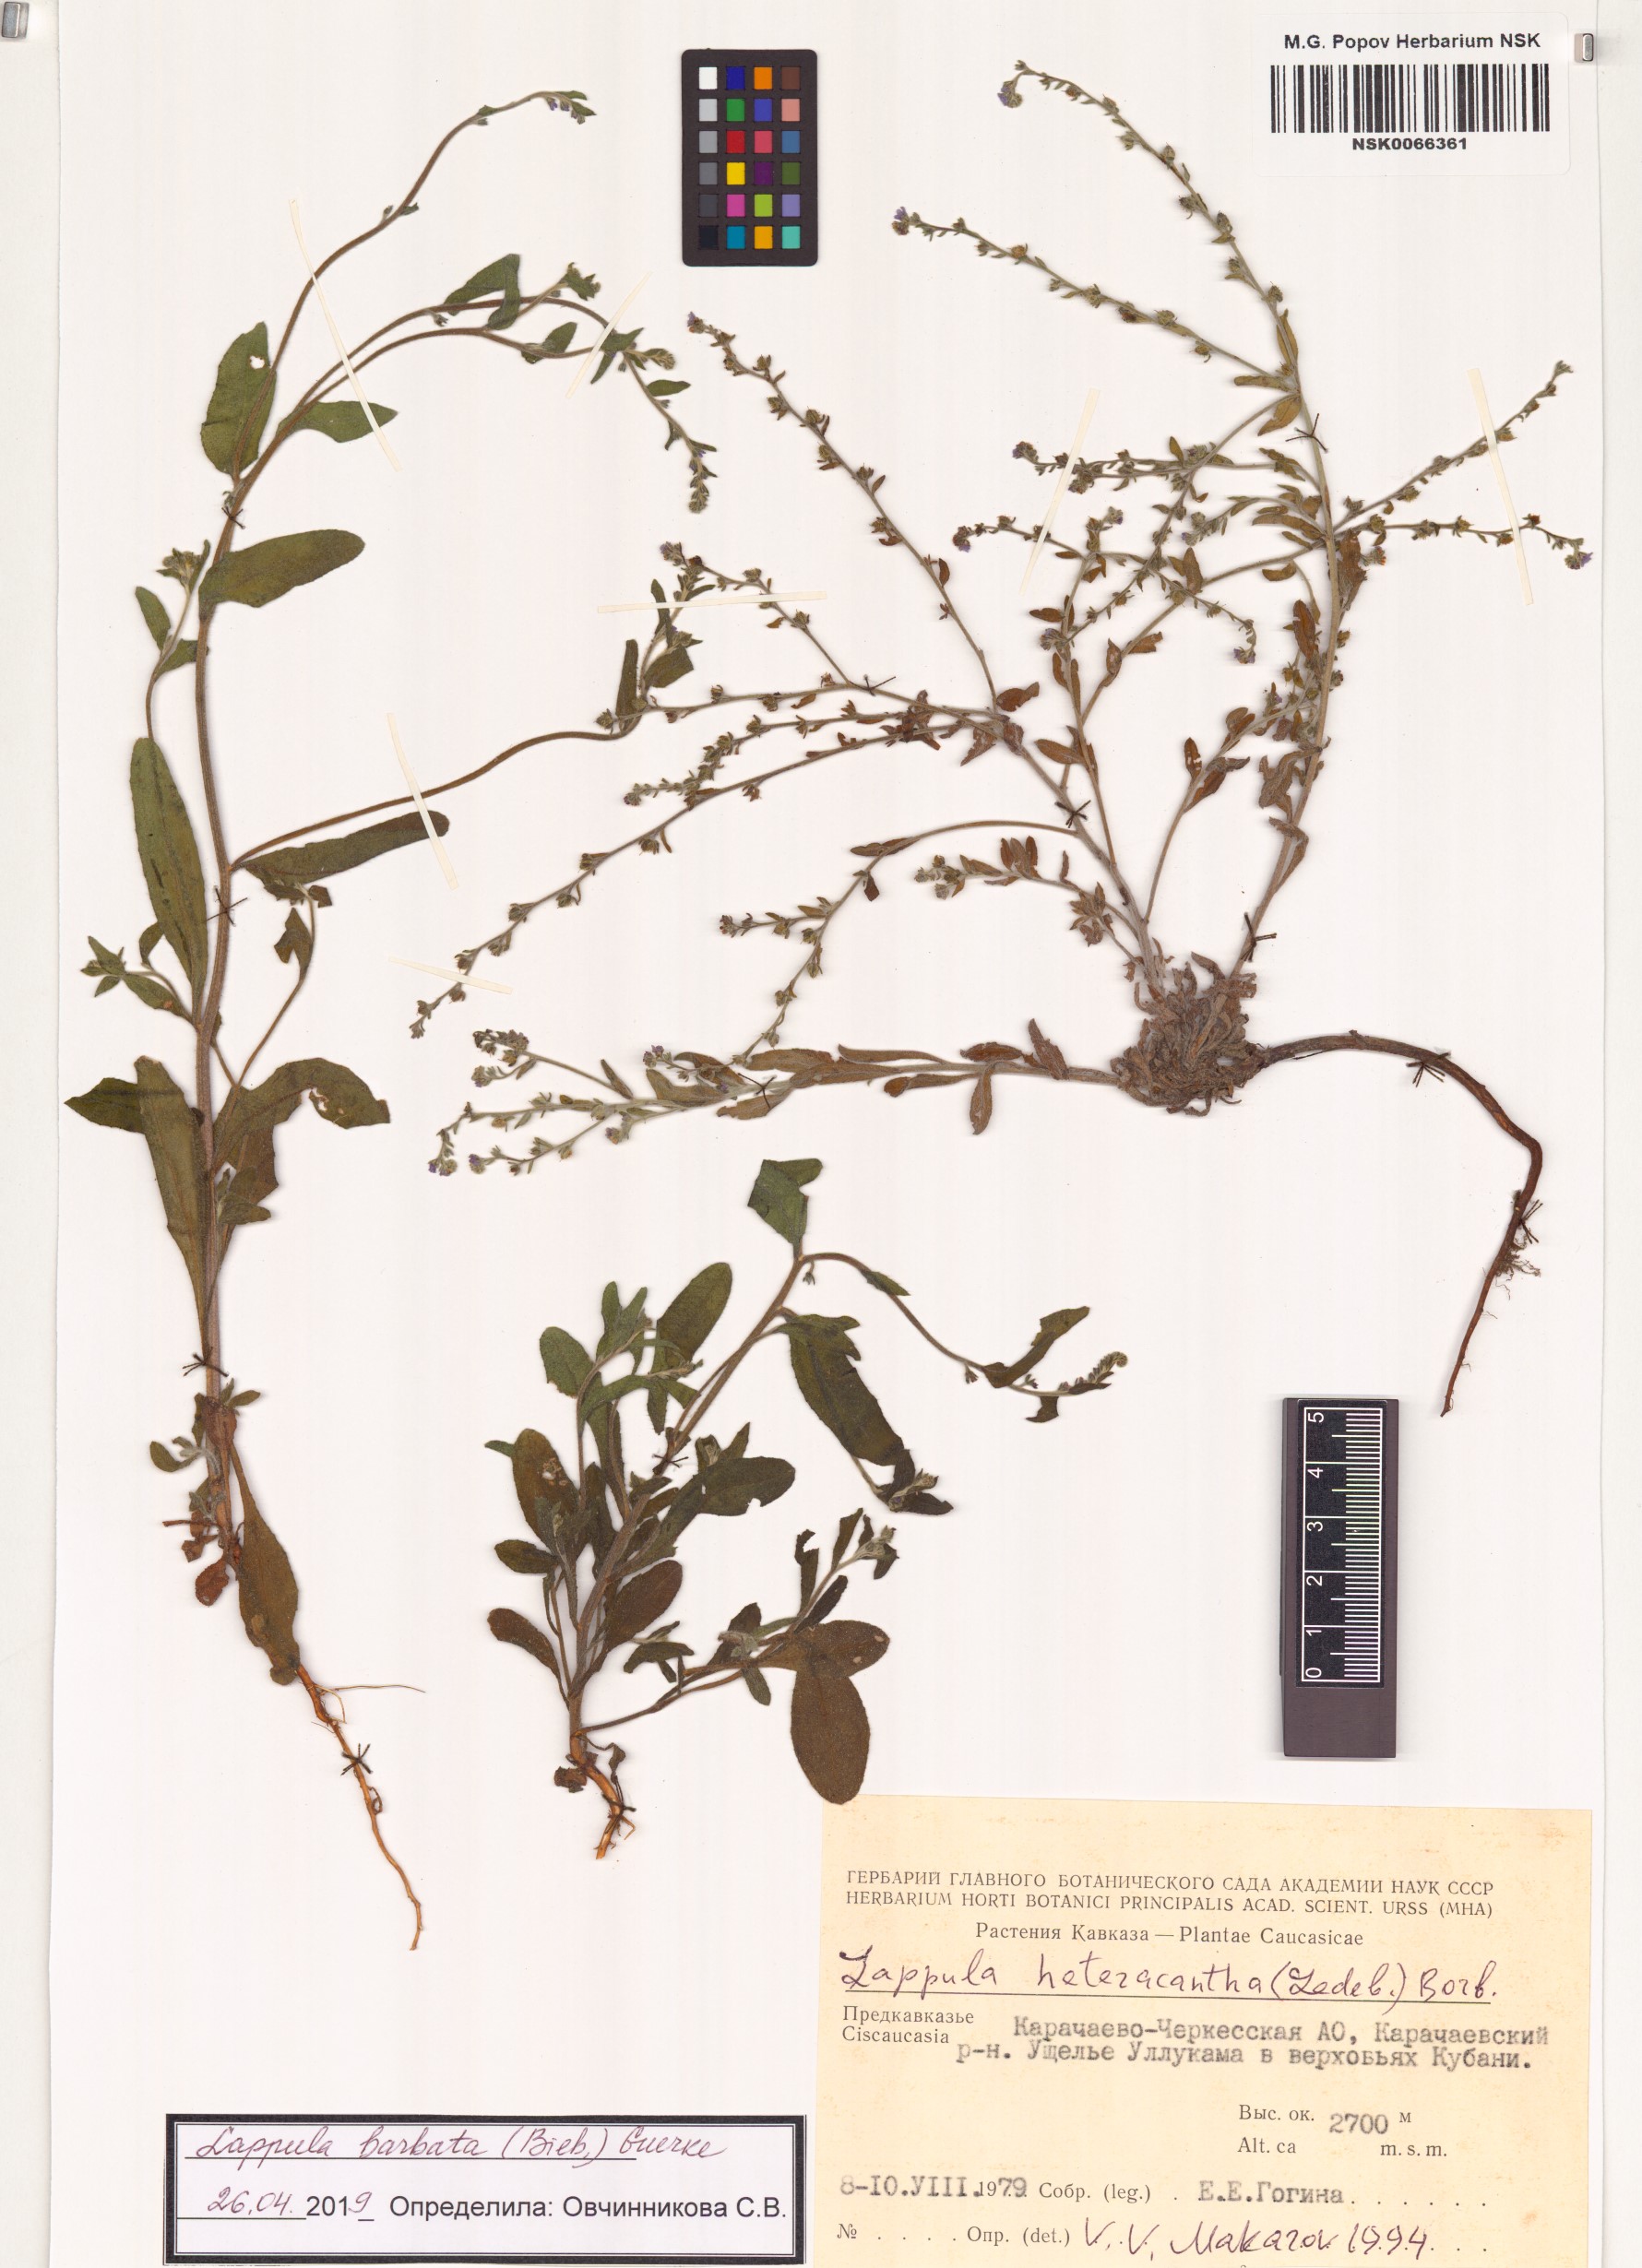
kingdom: Plantae
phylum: Tracheophyta
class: Magnoliopsida
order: Boraginales
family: Boraginaceae
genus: Lappula
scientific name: Lappula barbata
